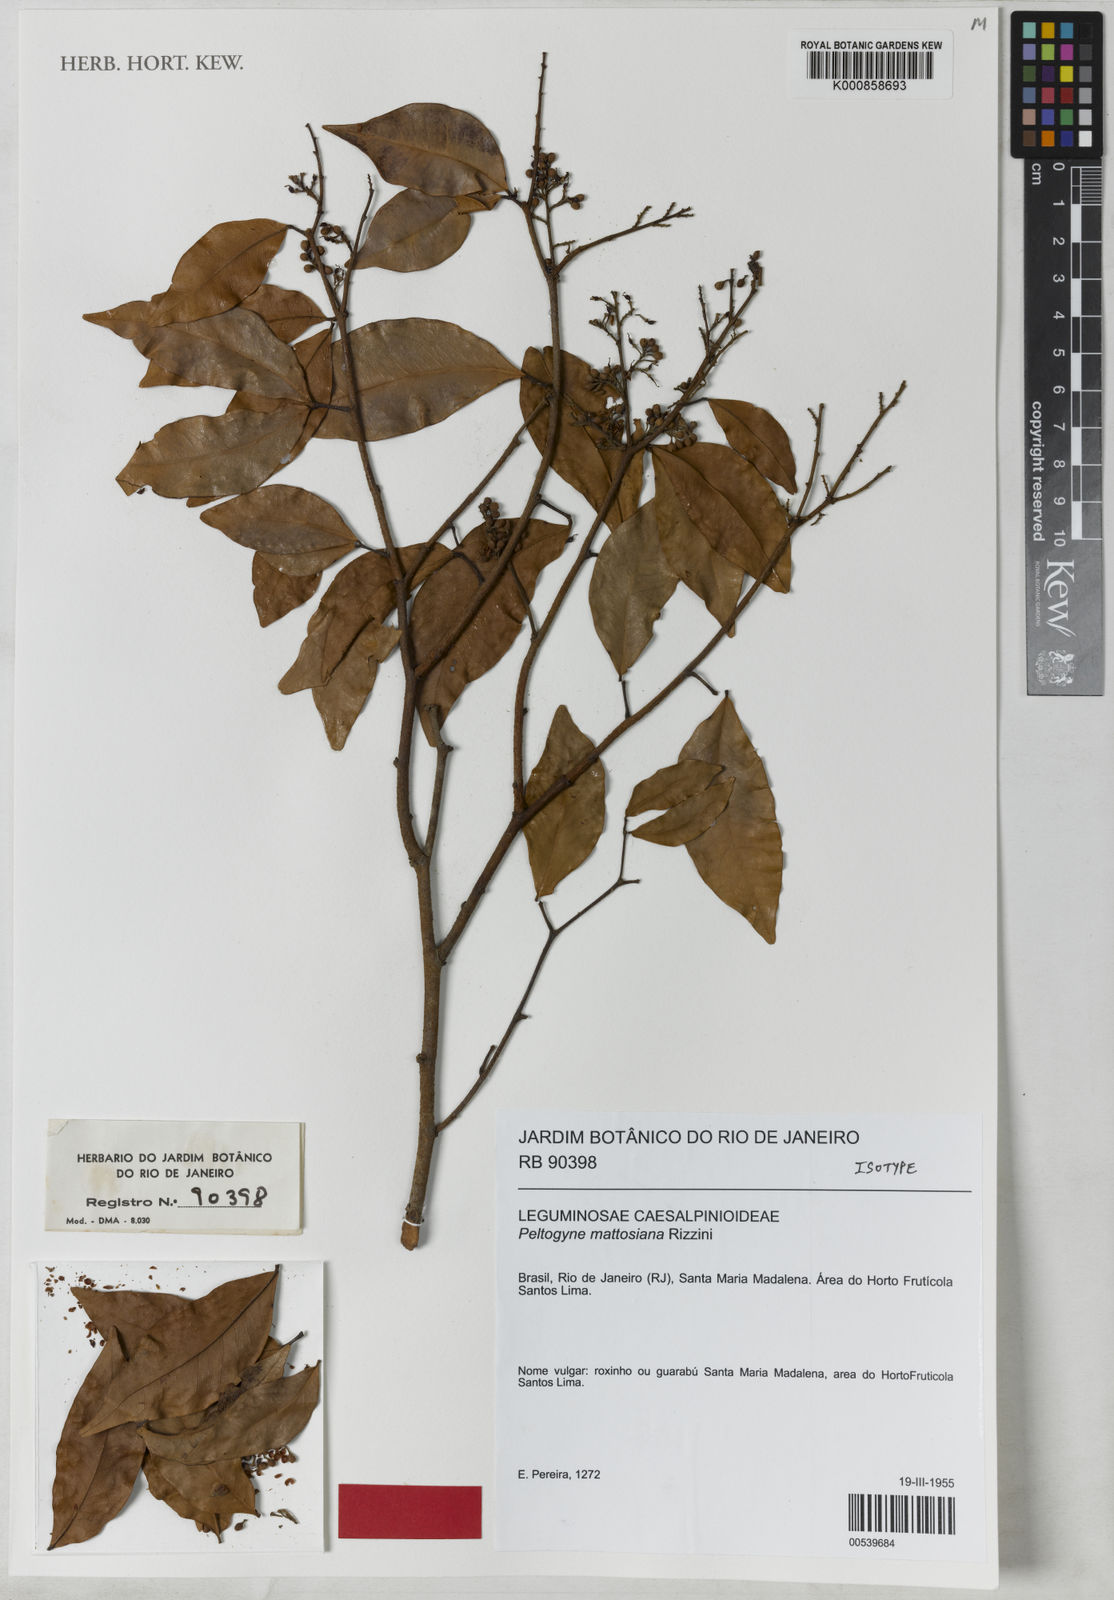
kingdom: Plantae
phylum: Tracheophyta
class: Magnoliopsida
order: Fabales
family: Fabaceae
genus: Peltogyne
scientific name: Peltogyne mattosiana
